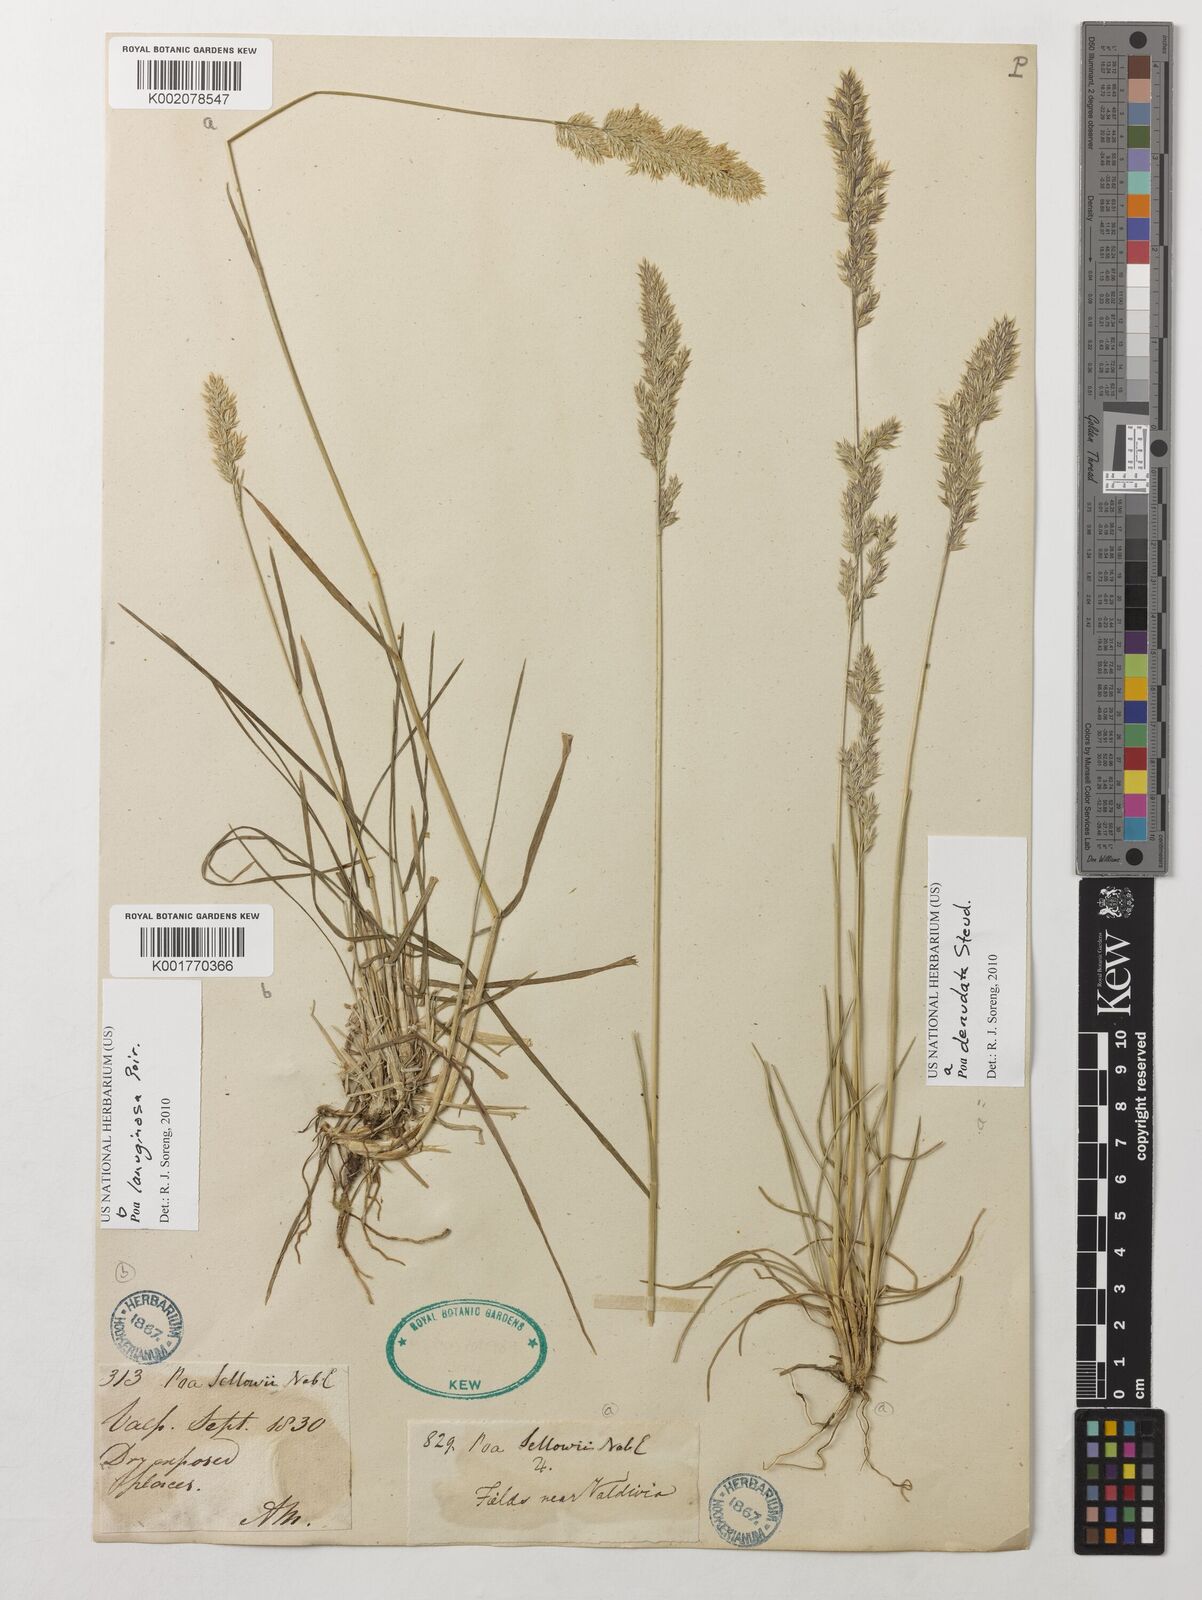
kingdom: Plantae
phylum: Tracheophyta
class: Liliopsida
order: Poales
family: Poaceae
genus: Poa
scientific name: Poa denudata
